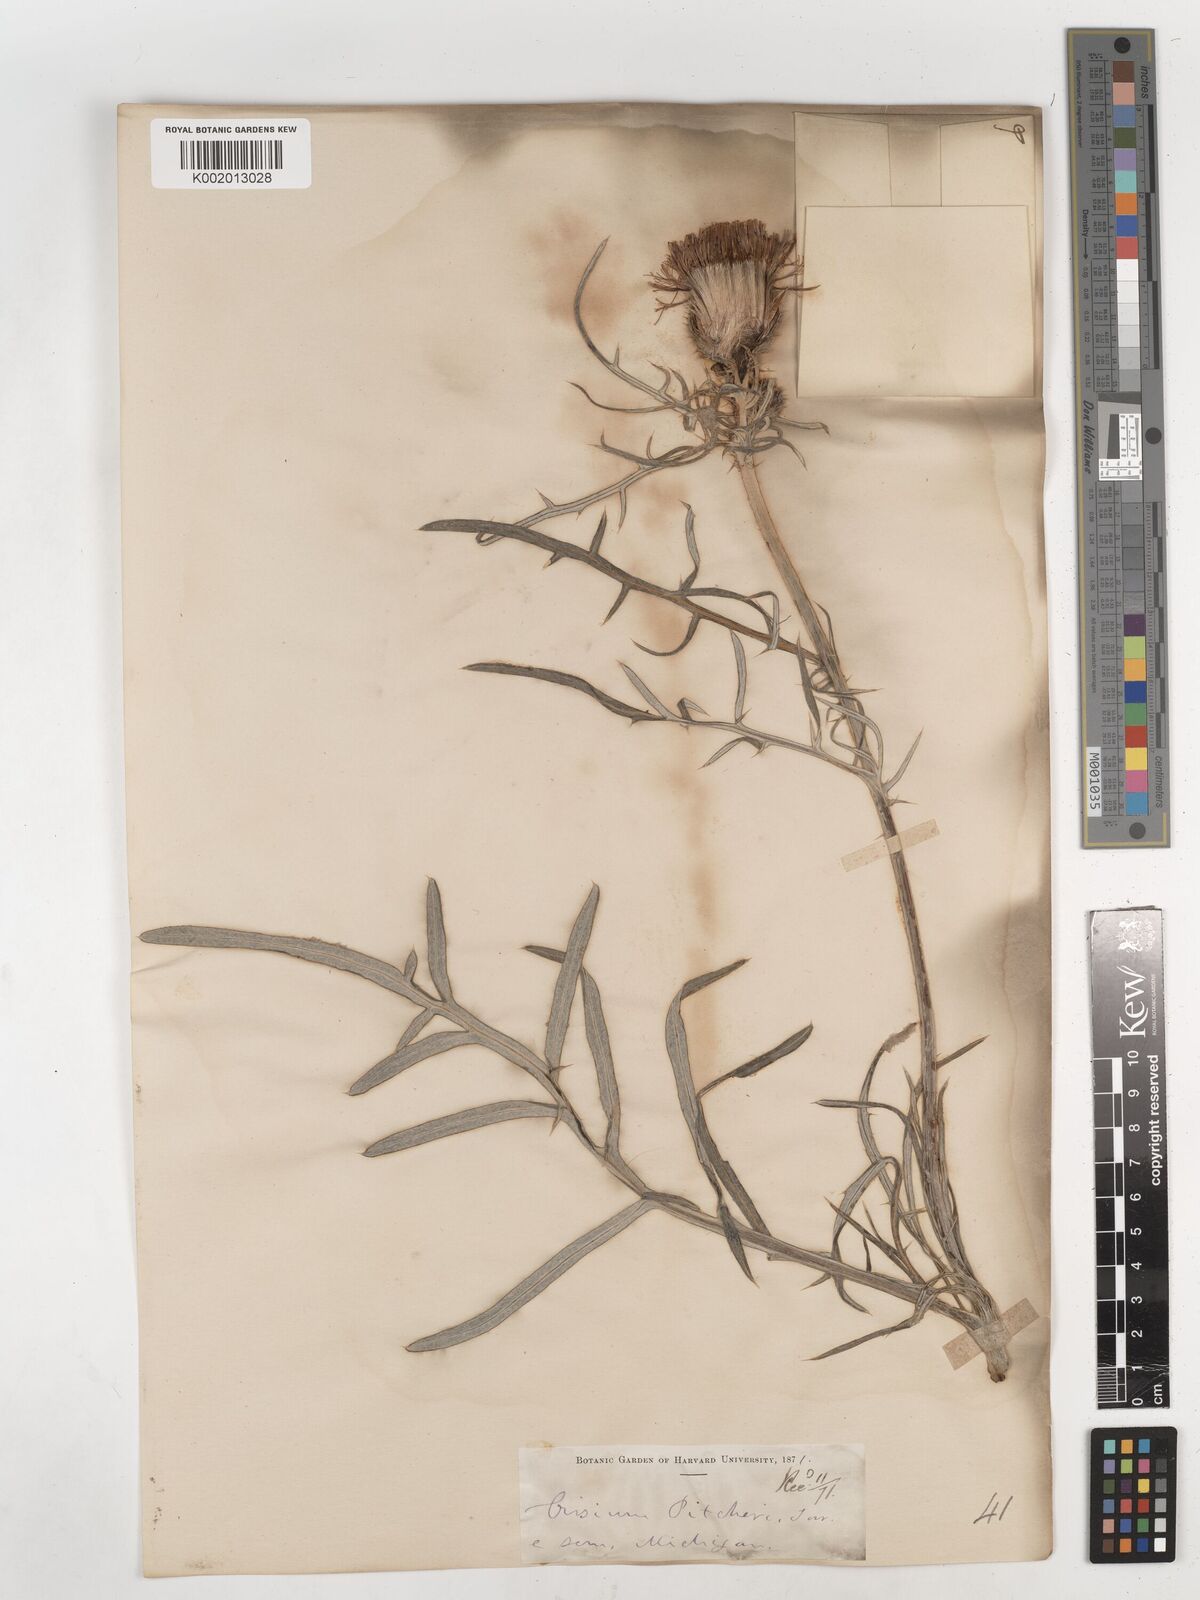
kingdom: Plantae
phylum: Tracheophyta
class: Magnoliopsida
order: Asterales
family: Asteraceae
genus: Cirsium
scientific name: Cirsium pitcheri
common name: Dune thistle
